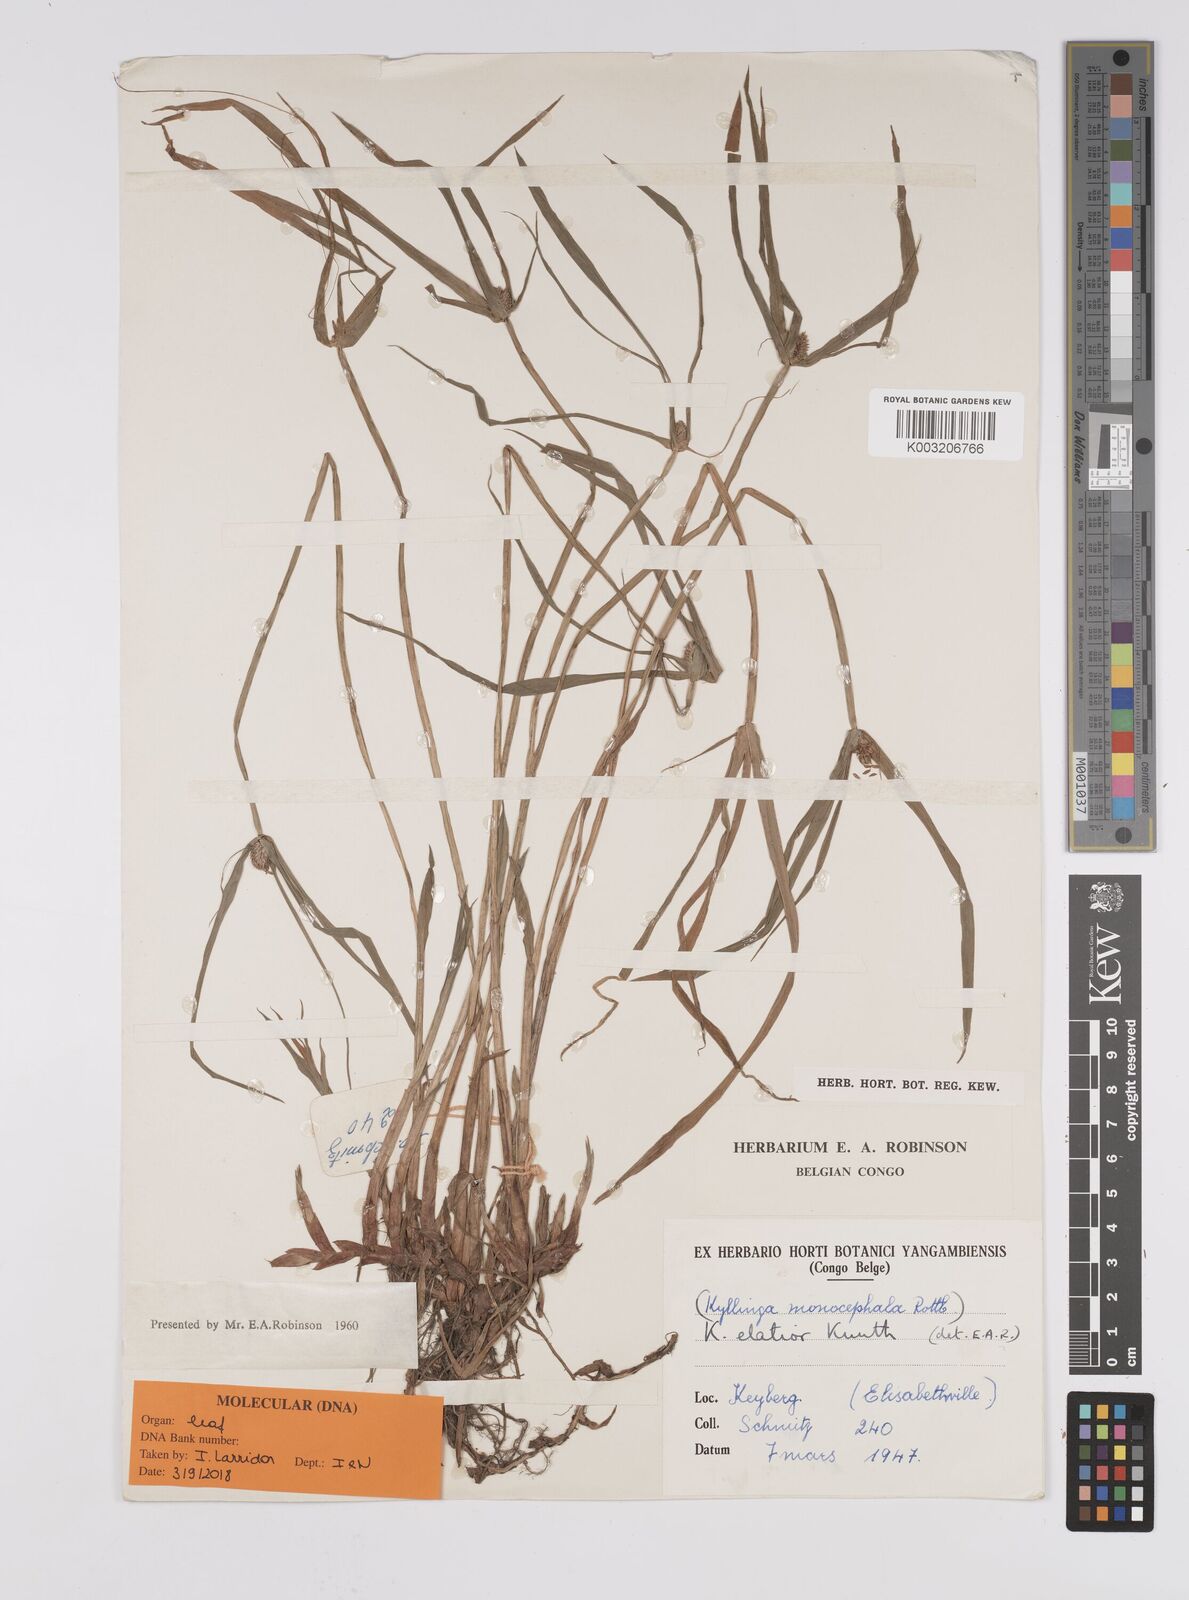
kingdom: Plantae
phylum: Tracheophyta
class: Liliopsida
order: Poales
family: Cyperaceae
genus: Cyperus
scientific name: Cyperus
